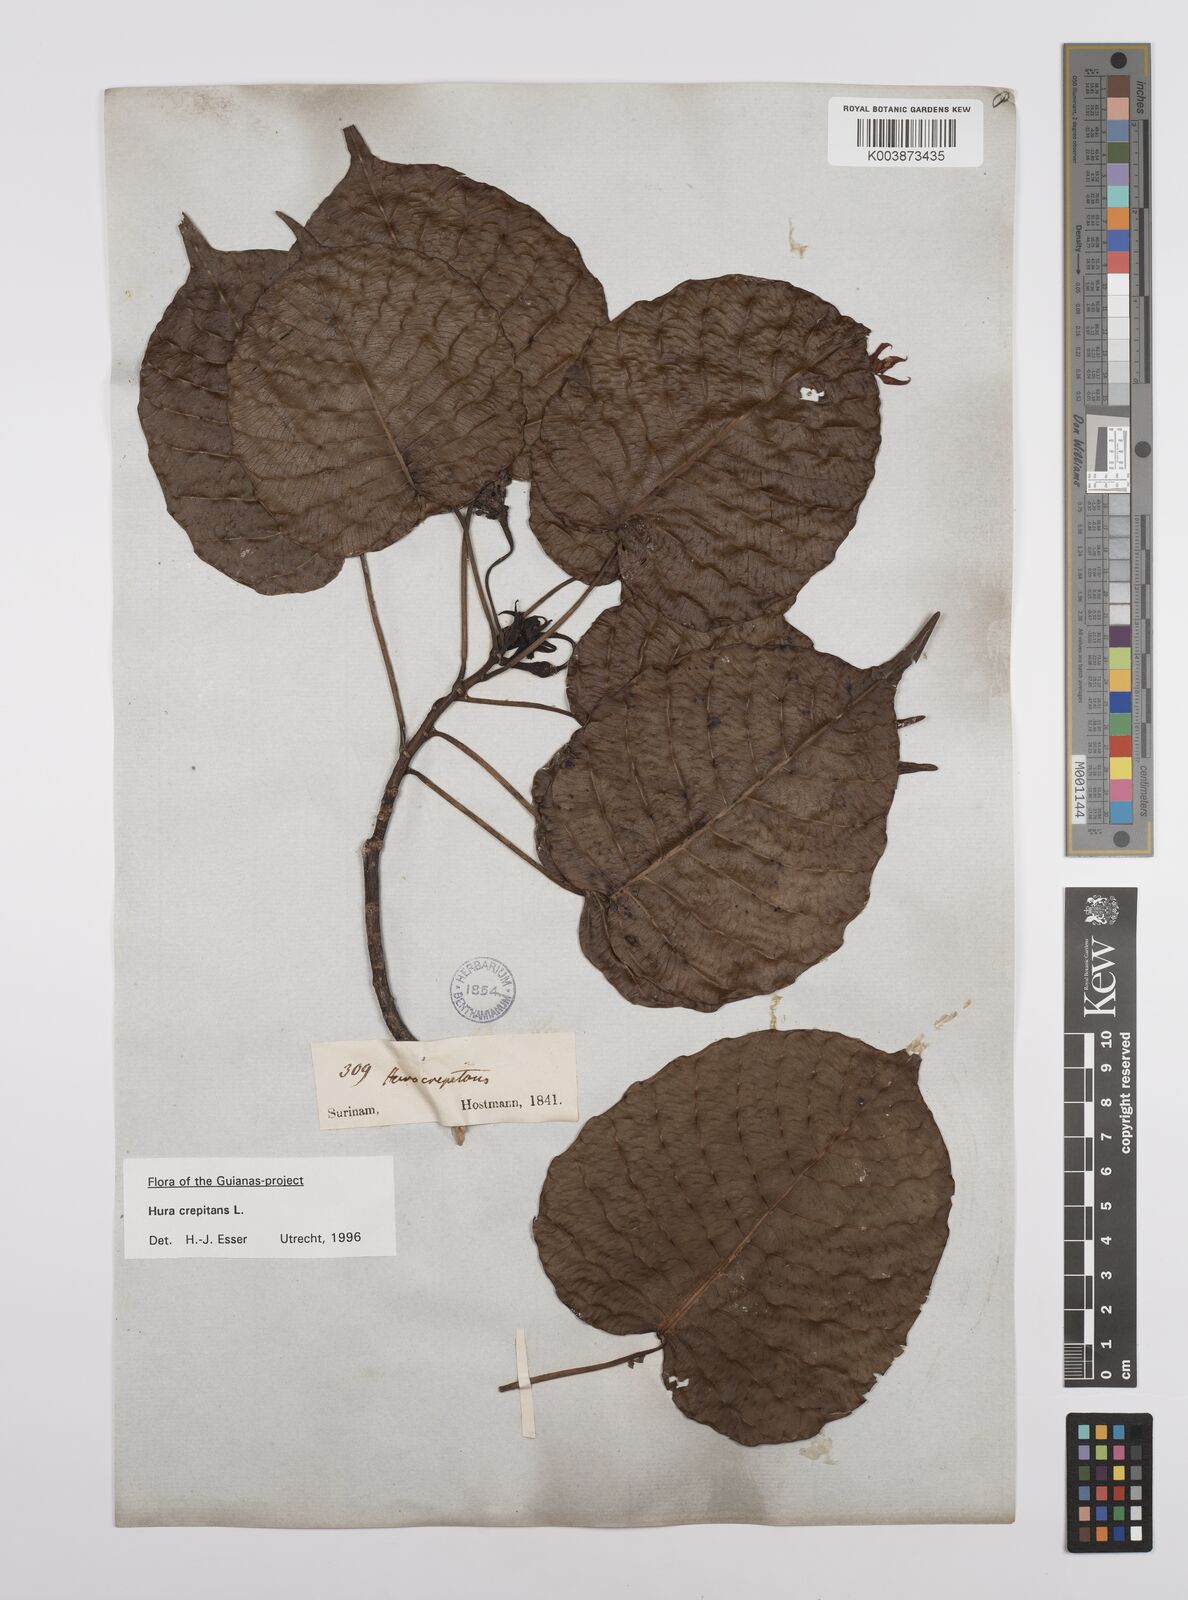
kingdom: Plantae
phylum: Tracheophyta
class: Magnoliopsida
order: Malpighiales
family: Euphorbiaceae
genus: Hura
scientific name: Hura crepitans
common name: Sandboxtree
